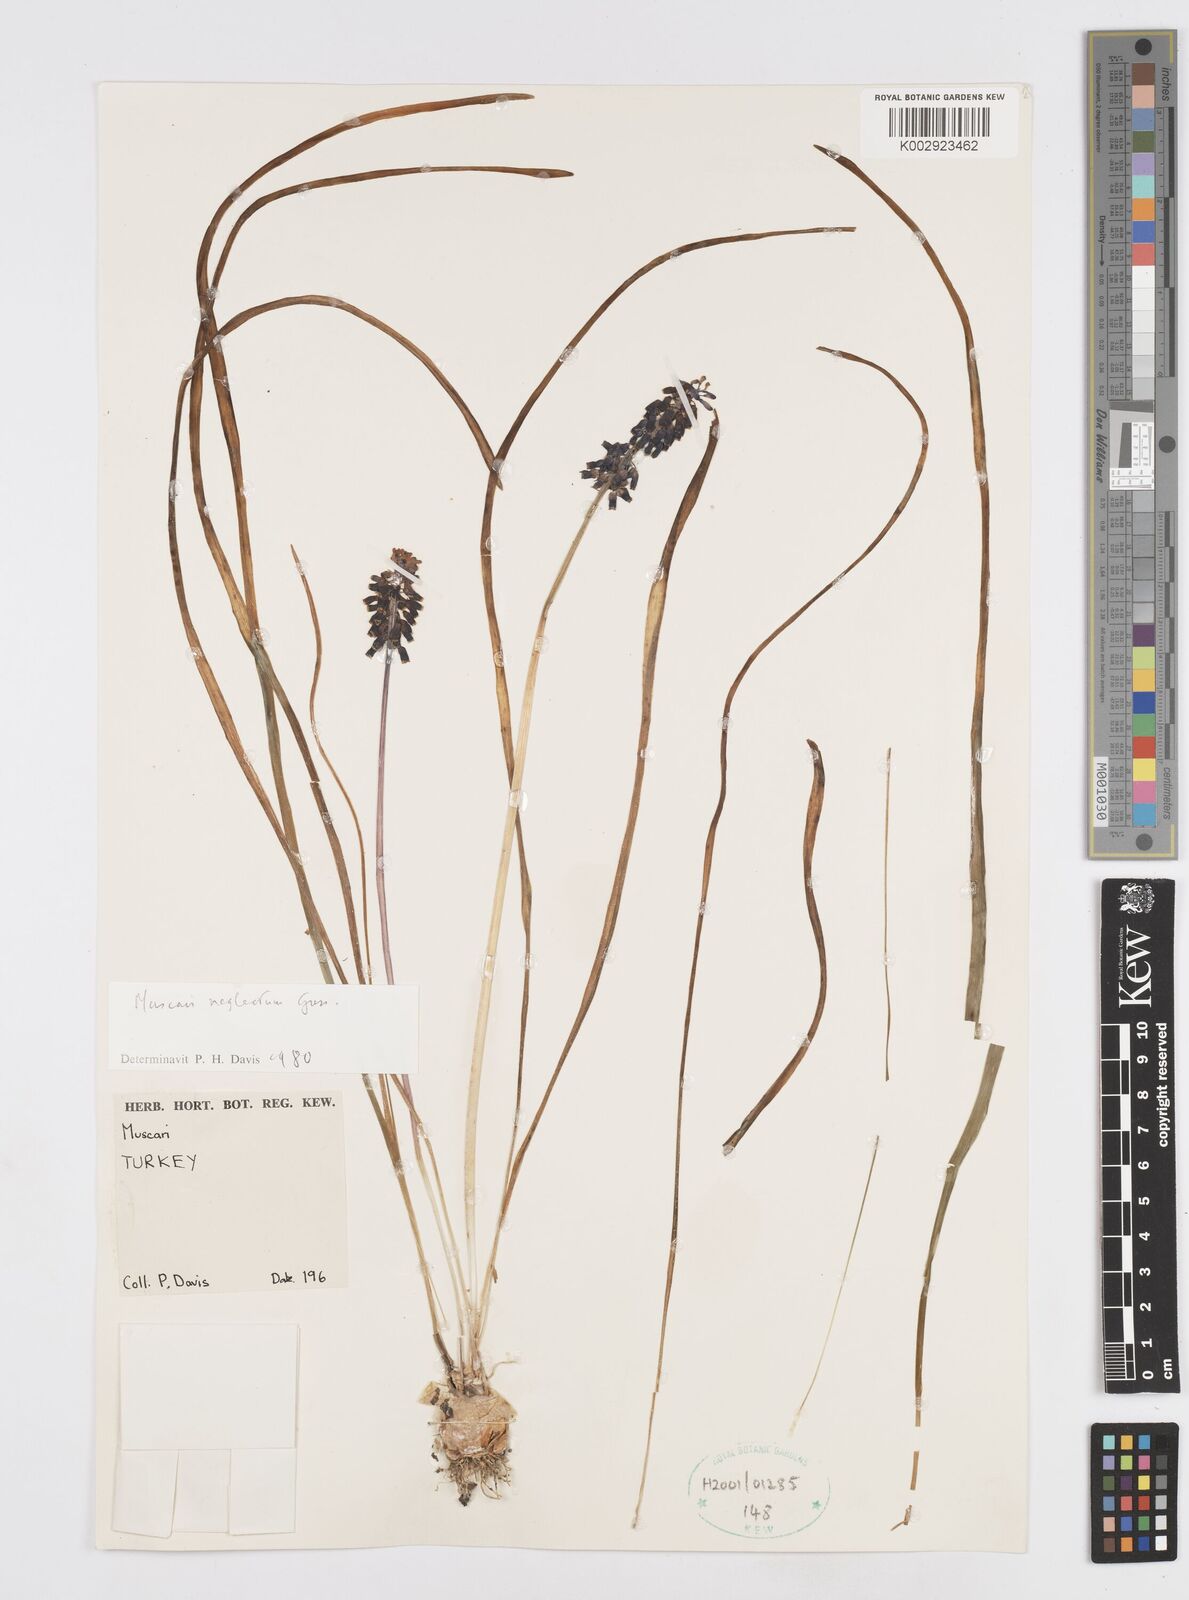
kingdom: Plantae
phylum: Tracheophyta
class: Liliopsida
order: Asparagales
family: Asparagaceae
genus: Muscari
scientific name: Muscari neglectum
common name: Grape-hyacinth
